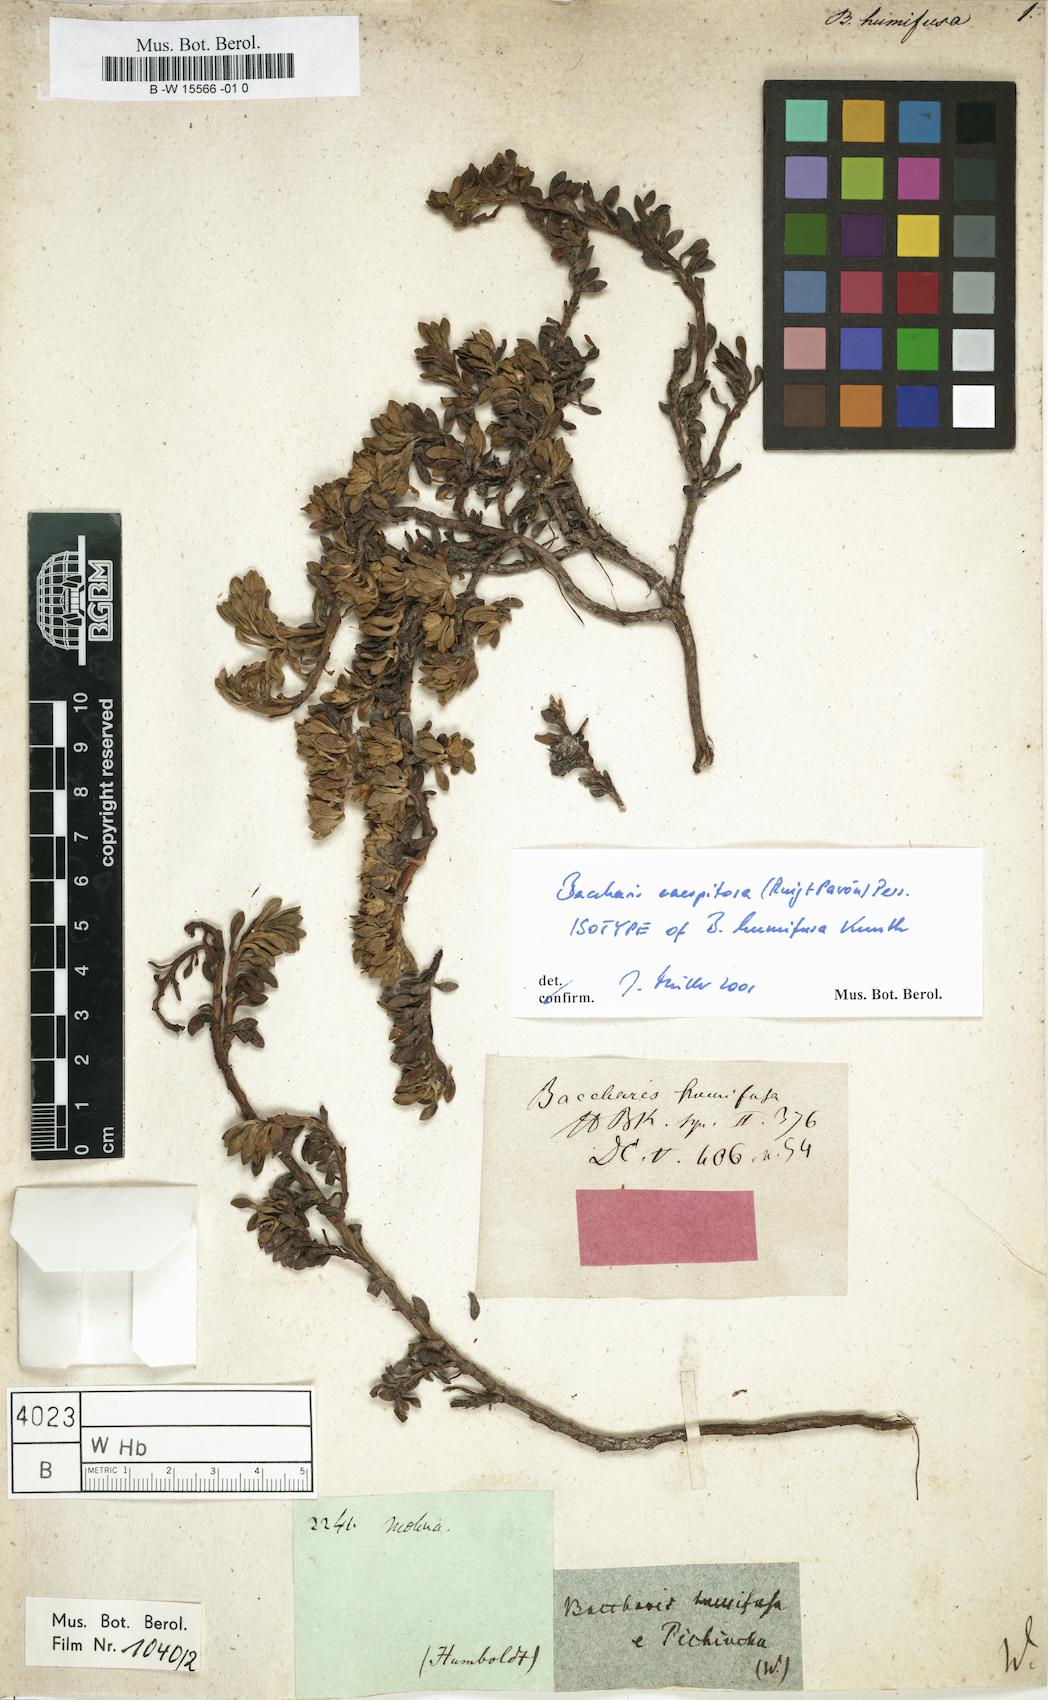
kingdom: Plantae
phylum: Tracheophyta
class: Magnoliopsida
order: Asterales
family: Asteraceae
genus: Baccharis
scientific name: Baccharis alpina
